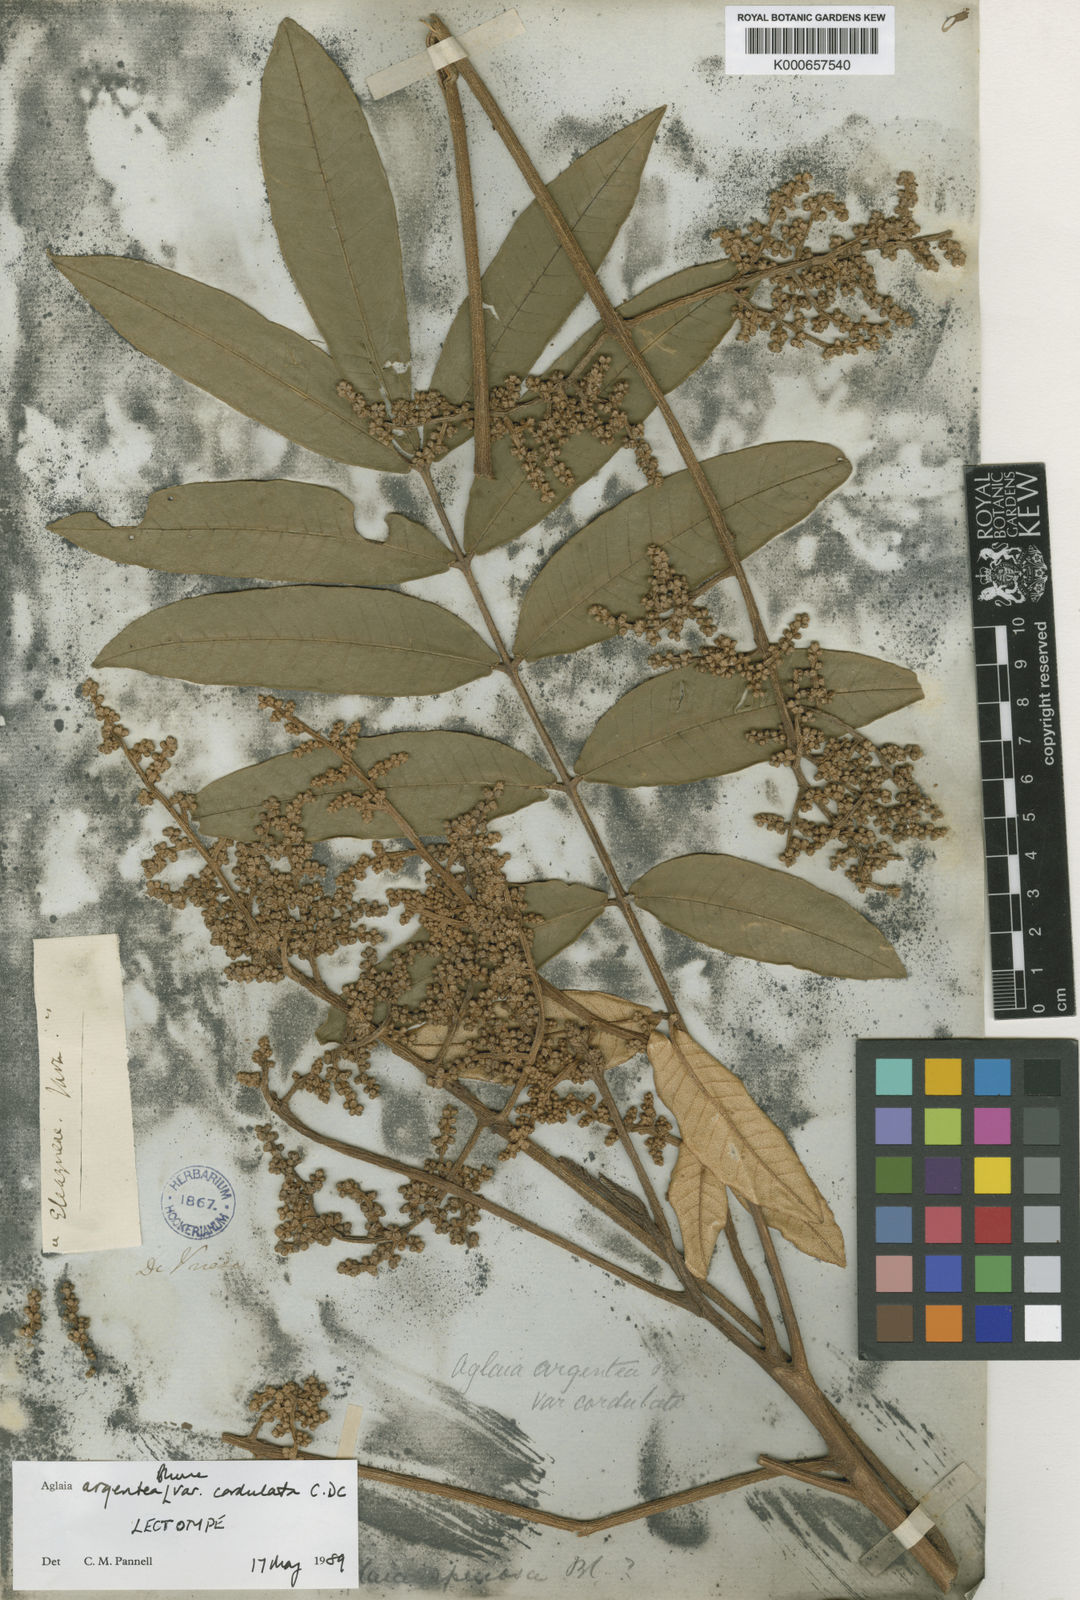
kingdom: Plantae
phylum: Tracheophyta
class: Magnoliopsida
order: Sapindales
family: Meliaceae
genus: Aglaia
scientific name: Aglaia argentea
